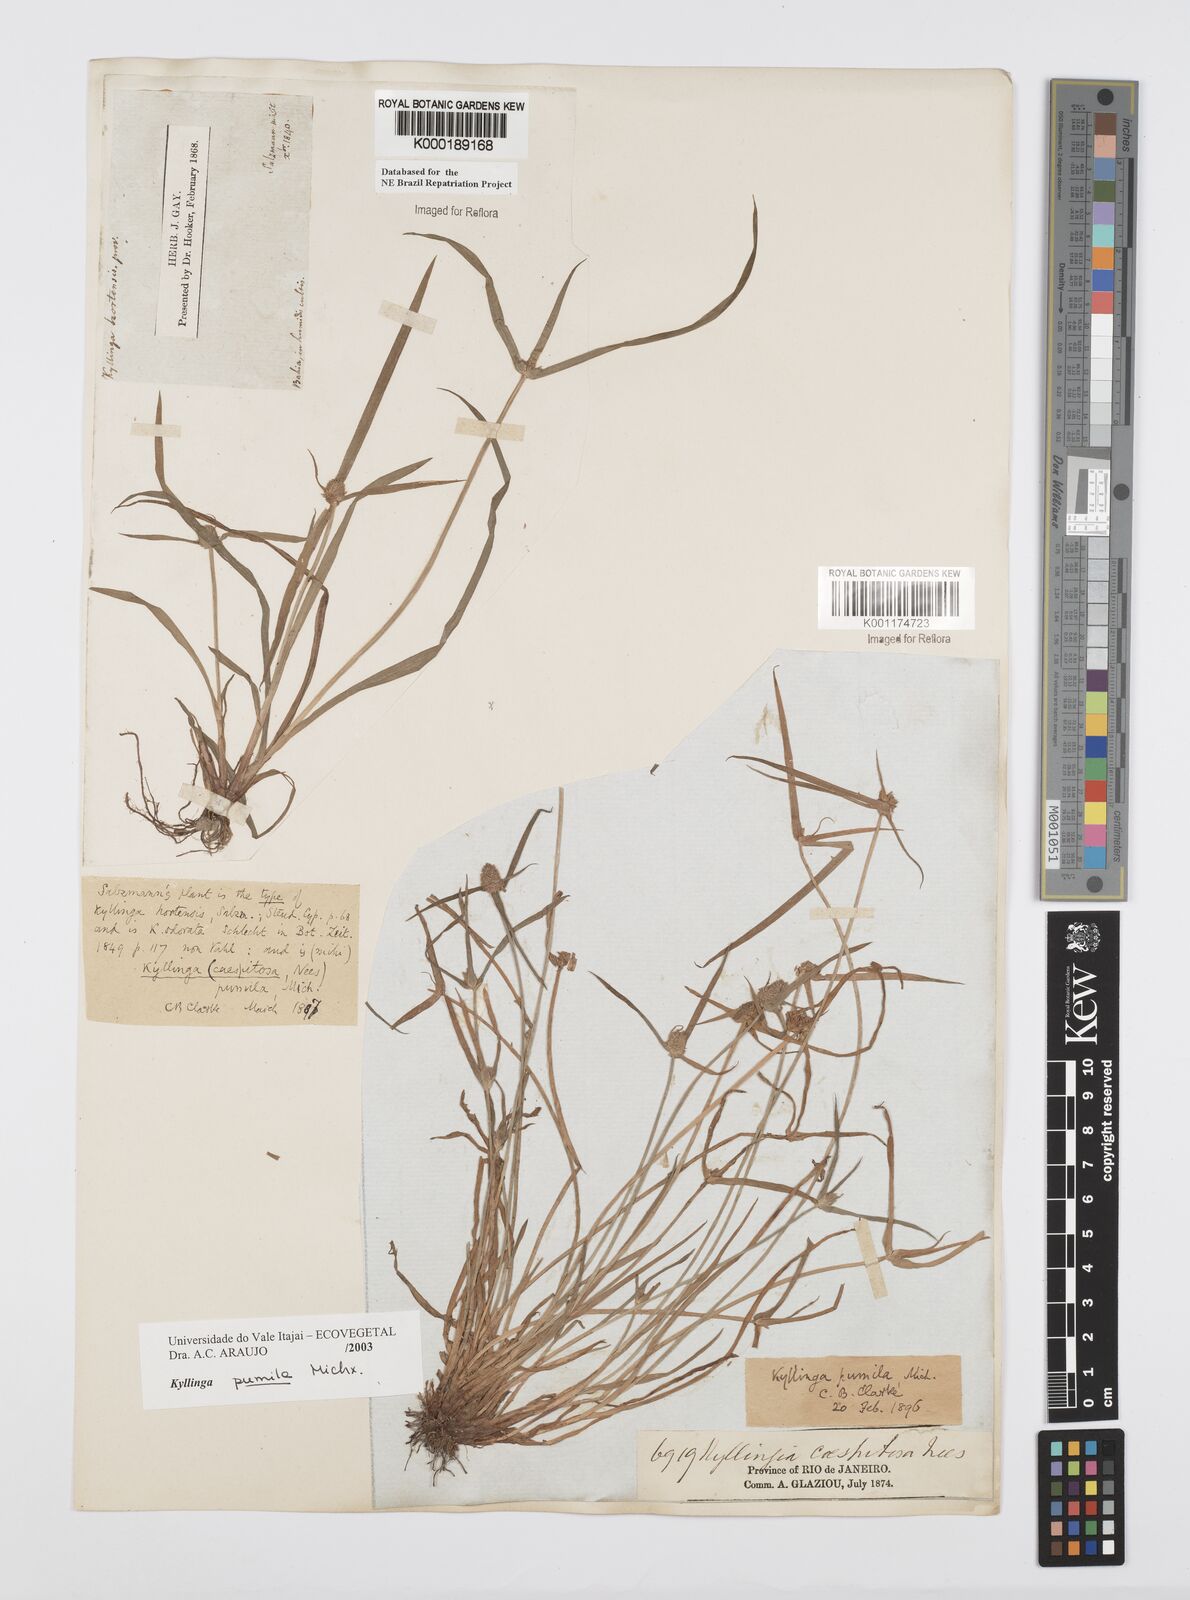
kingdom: Plantae
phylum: Tracheophyta
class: Liliopsida
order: Poales
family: Cyperaceae
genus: Cyperus
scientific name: Cyperus
